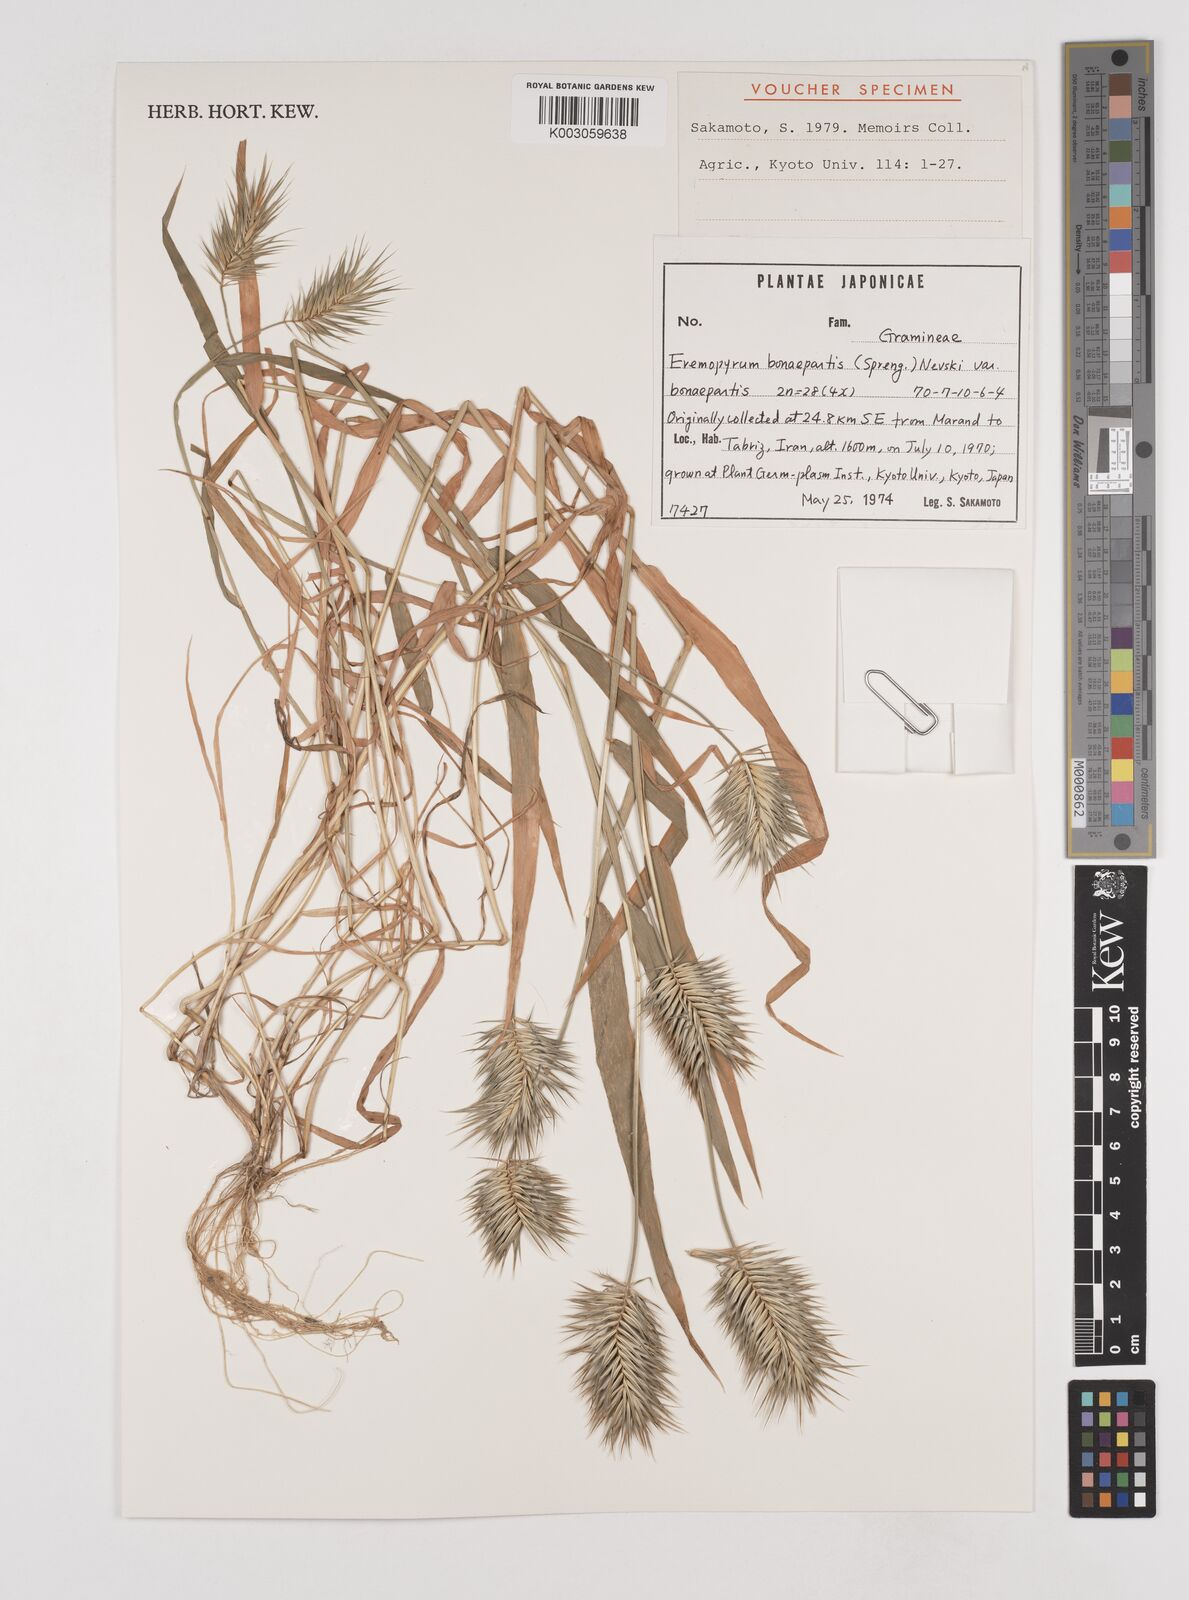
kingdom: Plantae
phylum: Tracheophyta
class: Liliopsida
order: Poales
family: Poaceae
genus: Eremopyrum
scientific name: Eremopyrum bonaepartis
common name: Tapertip false wheatgrass
